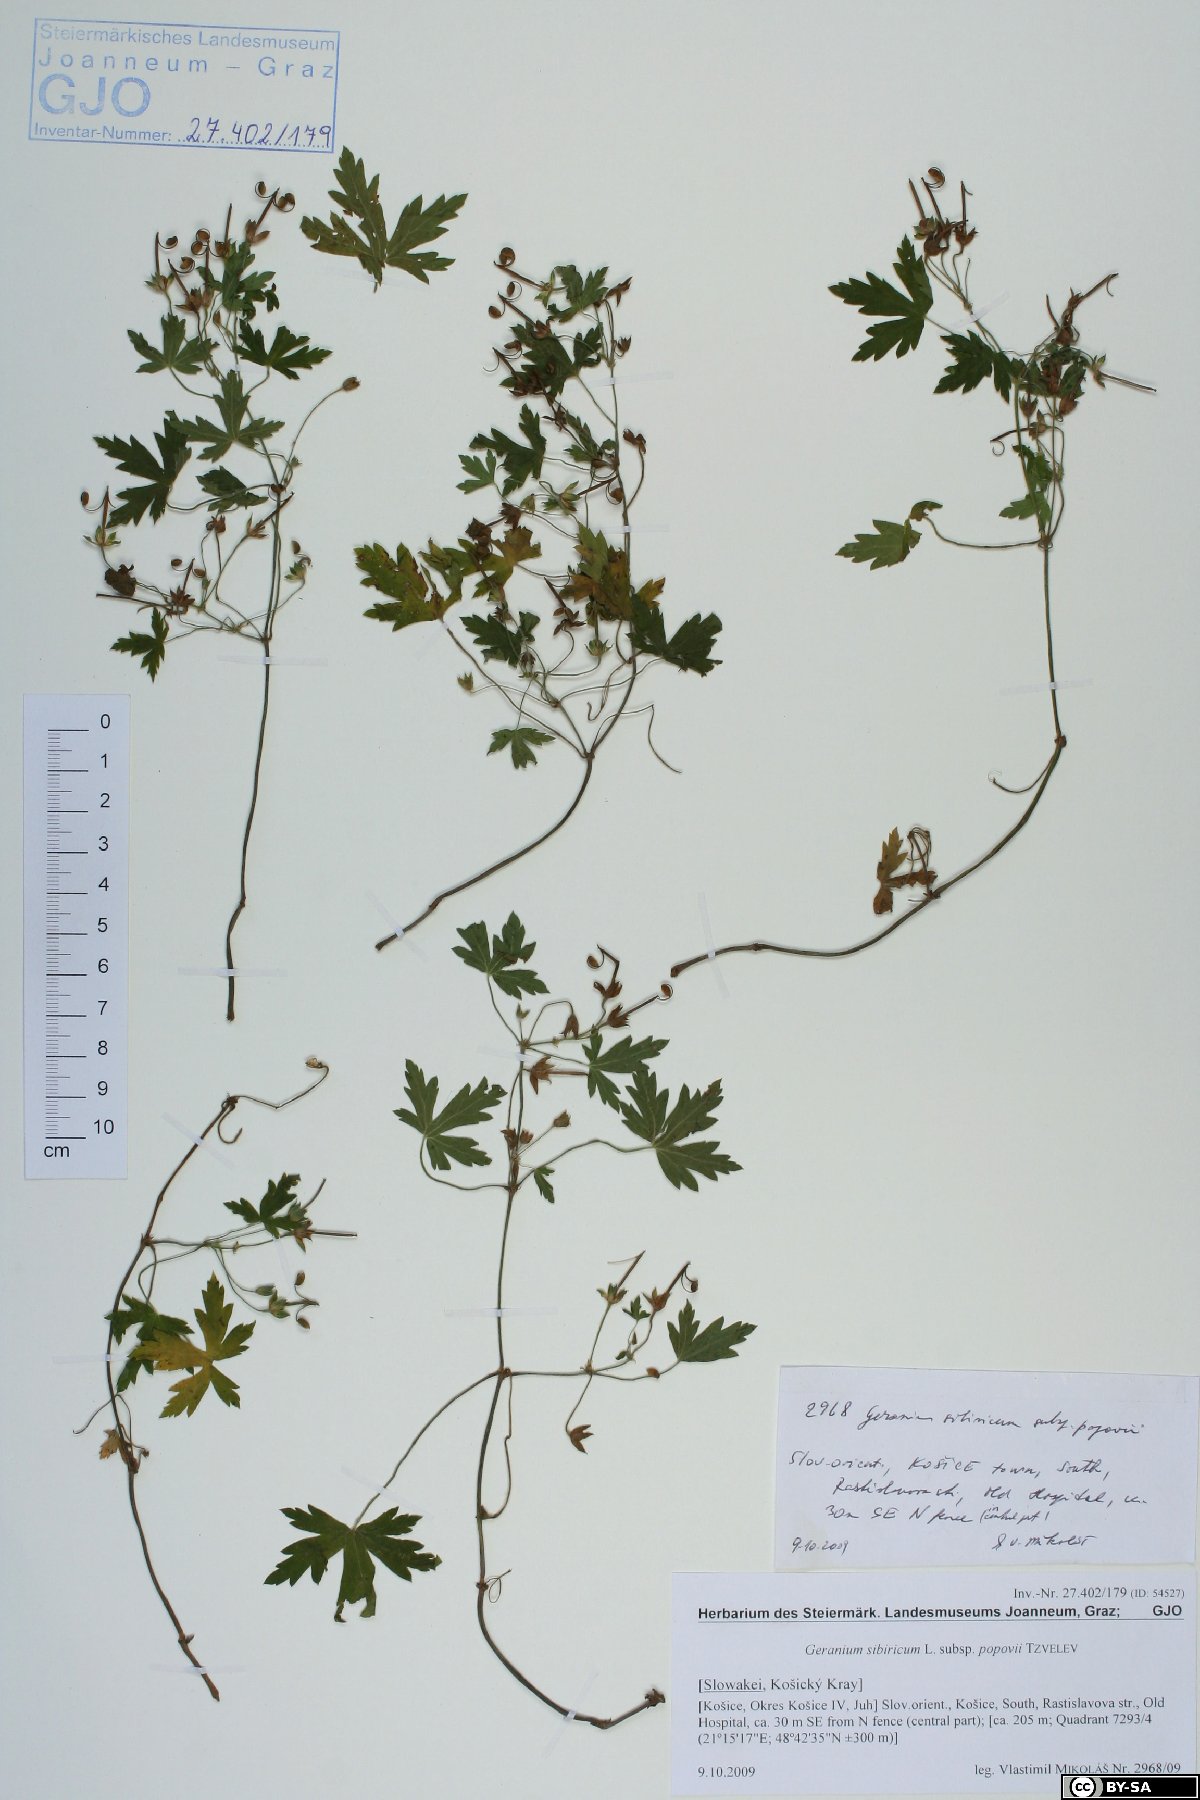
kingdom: Plantae
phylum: Tracheophyta
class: Magnoliopsida
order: Geraniales
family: Geraniaceae
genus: Geranium
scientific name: Geranium sibiricum
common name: Siberian crane's-bill
